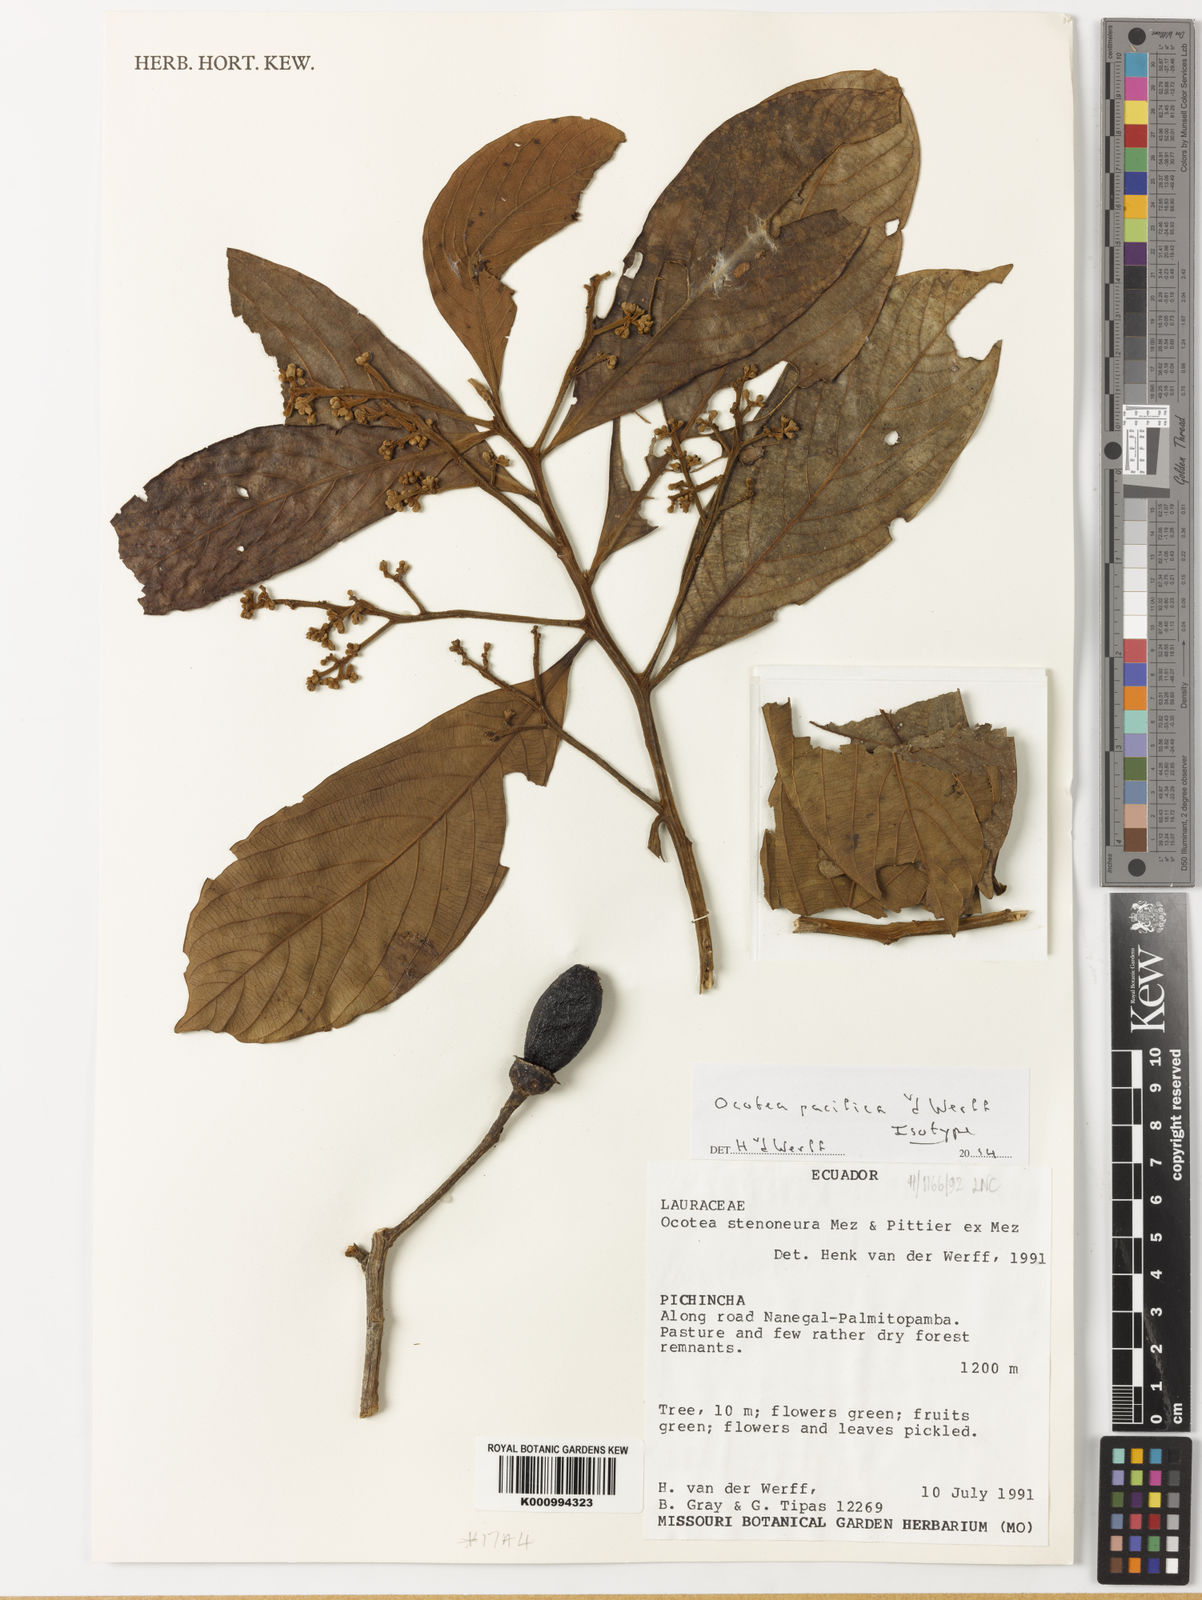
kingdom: Plantae
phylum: Tracheophyta
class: Magnoliopsida
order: Laurales
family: Lauraceae
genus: Ocotea
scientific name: Ocotea pacifica
